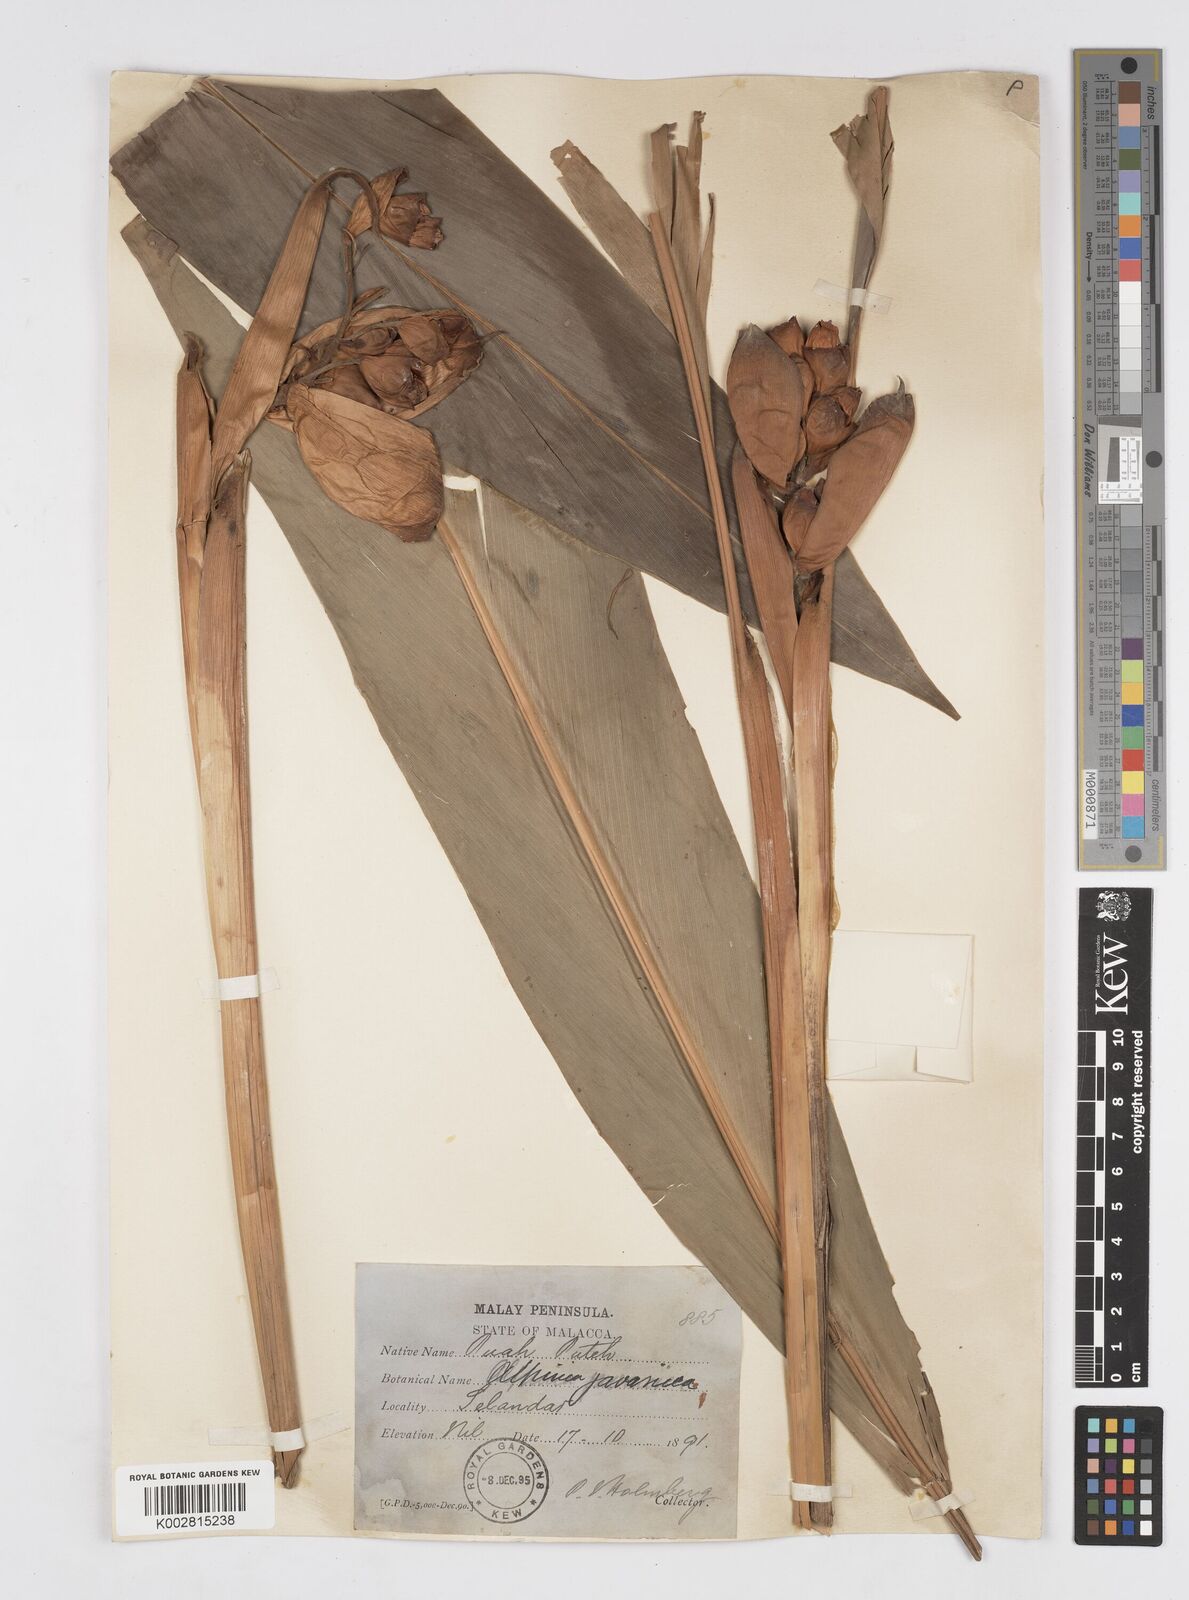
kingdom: Plantae
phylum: Tracheophyta
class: Liliopsida
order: Zingiberales
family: Zingiberaceae
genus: Alpinia
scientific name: Alpinia javanica
